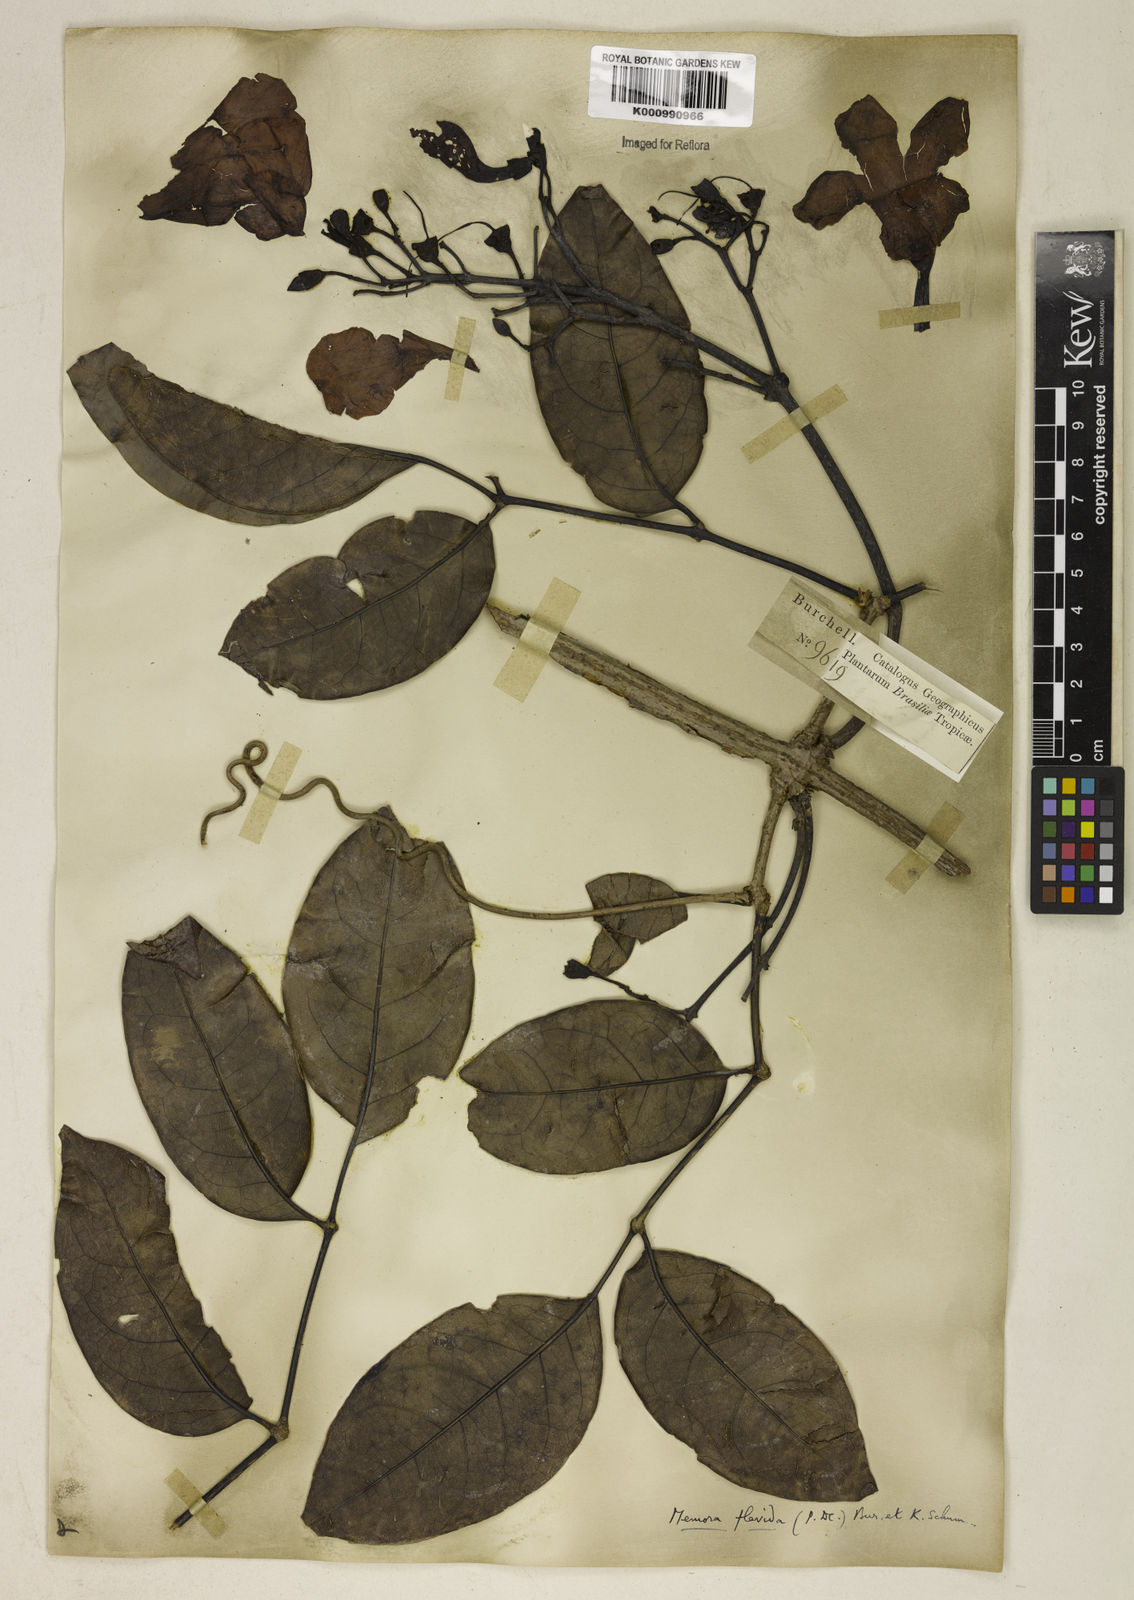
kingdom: Plantae
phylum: Tracheophyta
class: Magnoliopsida
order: Lamiales
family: Bignoniaceae
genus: Adenocalymma
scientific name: Adenocalymma neoflavidum
